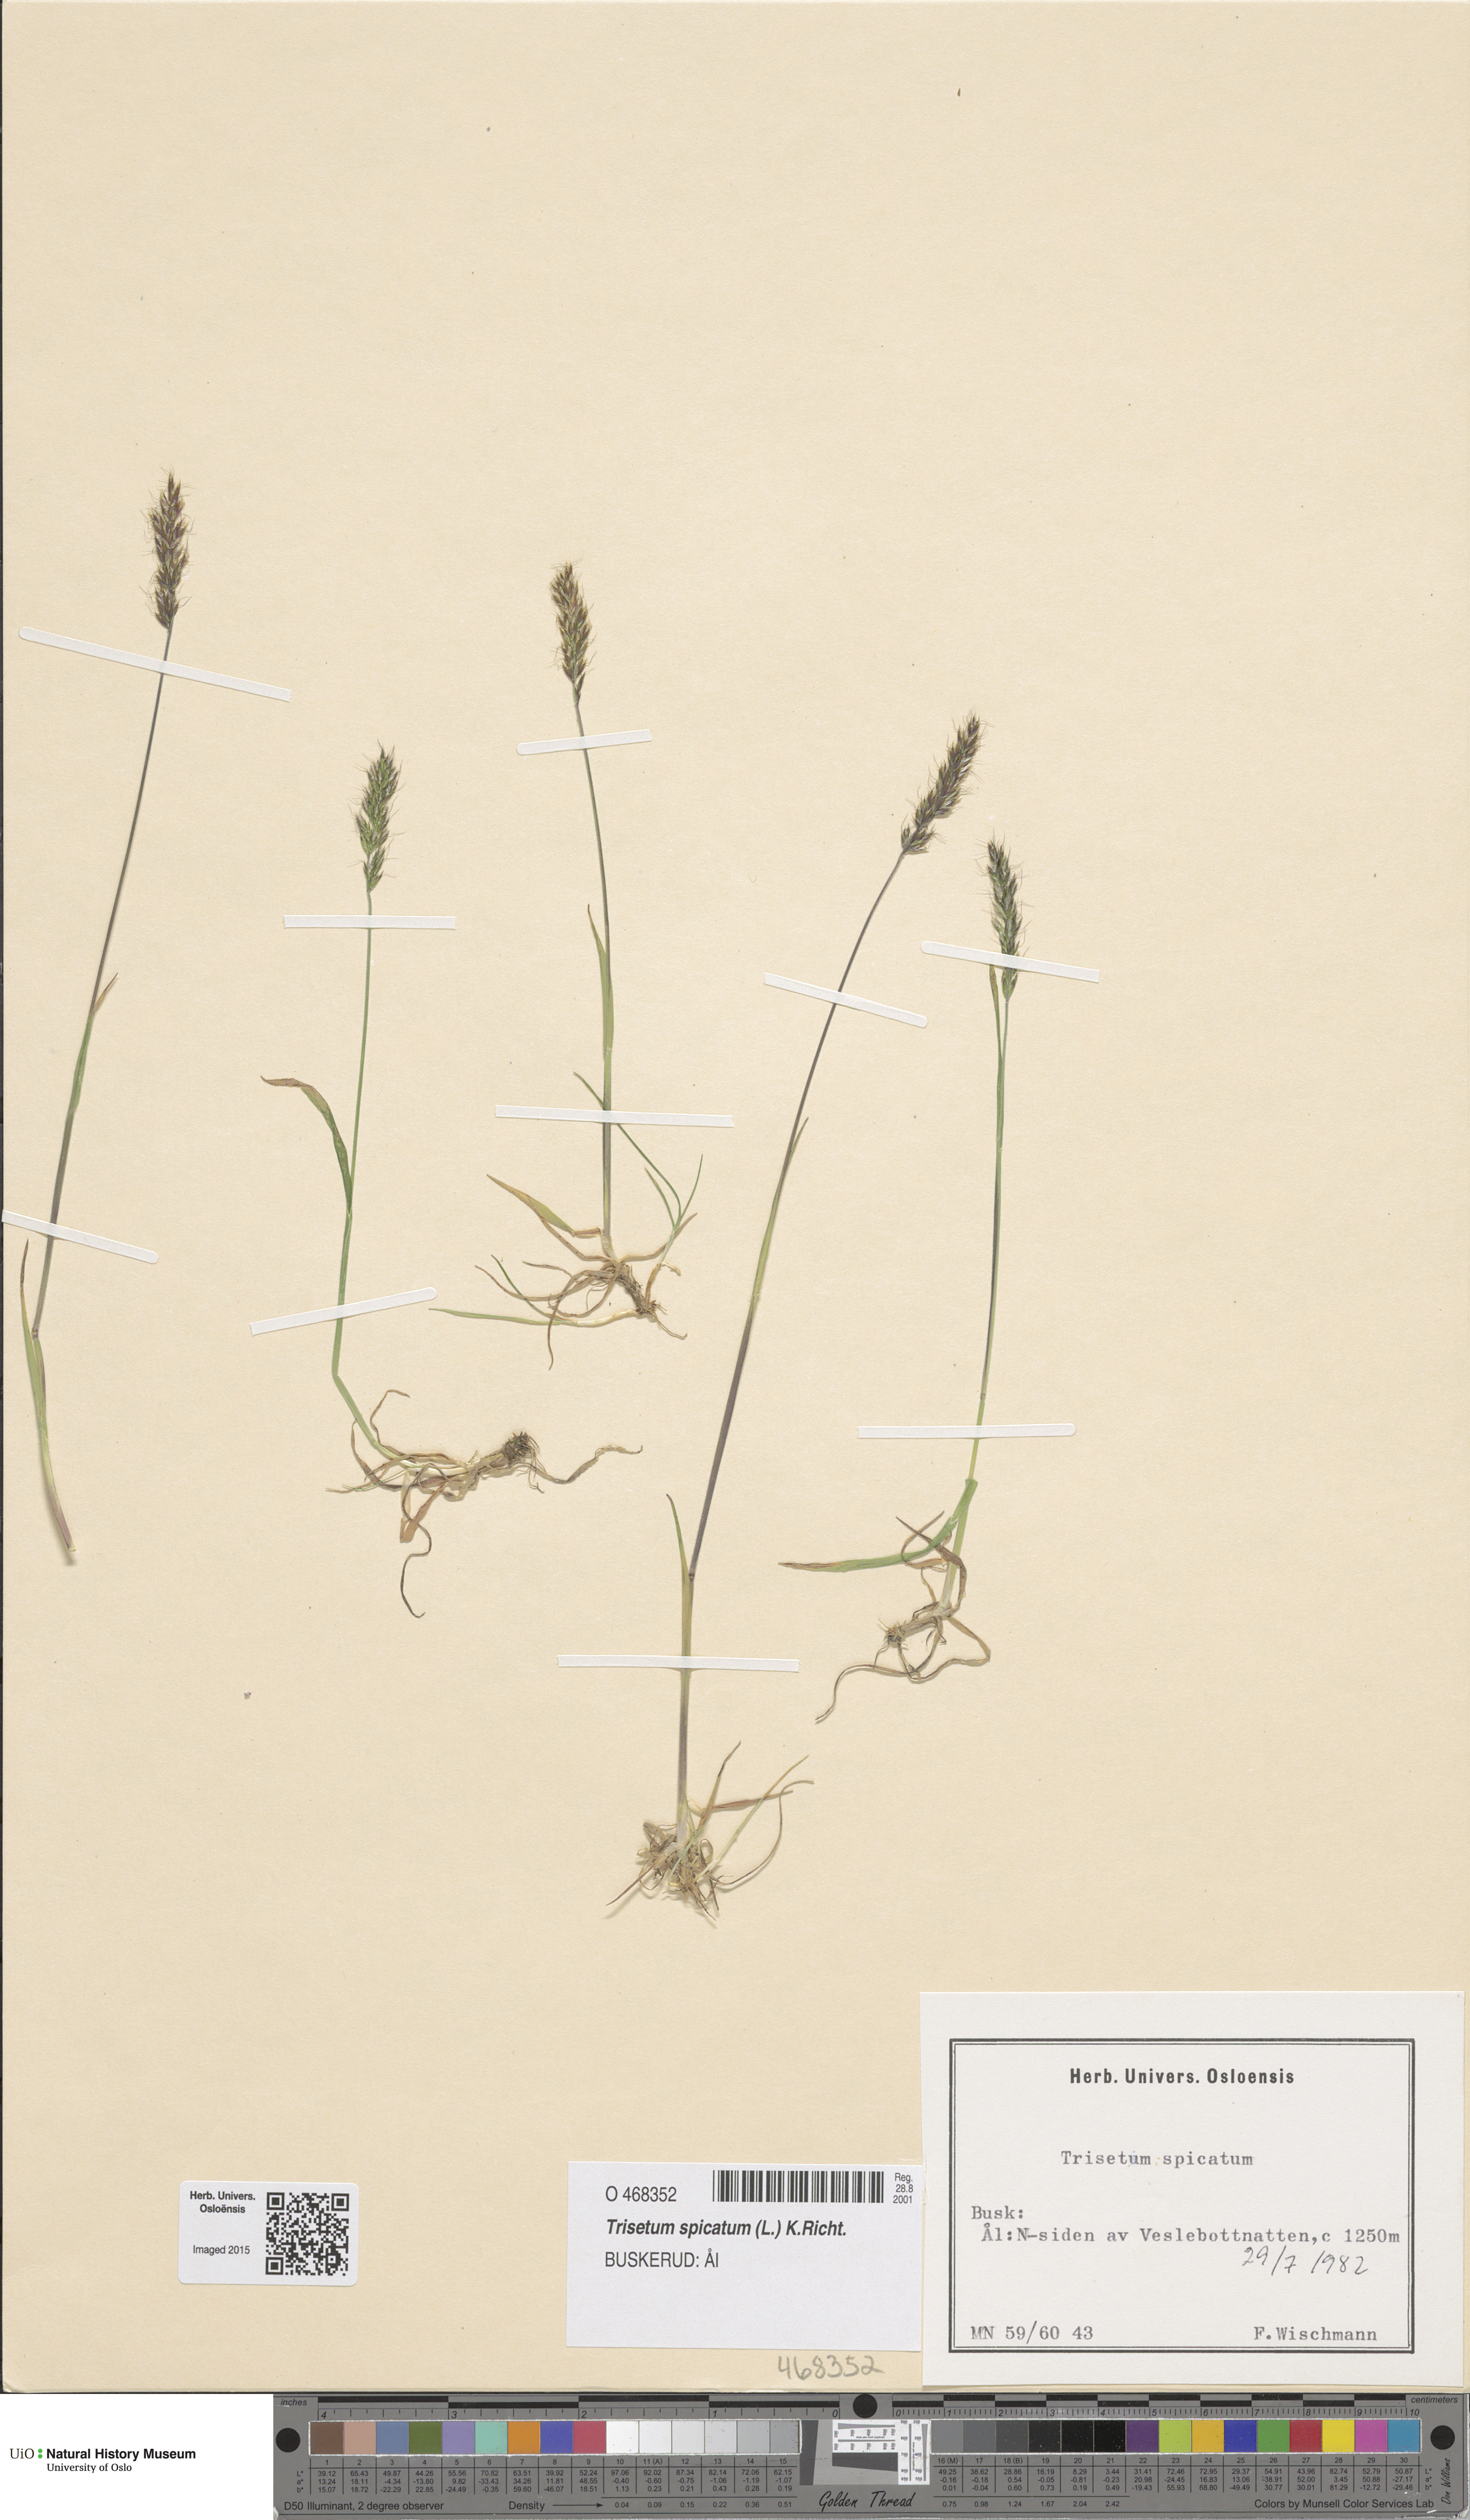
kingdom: Plantae
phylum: Tracheophyta
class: Liliopsida
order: Poales
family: Poaceae
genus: Koeleria
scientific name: Koeleria spicata
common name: Mountain trisetum
